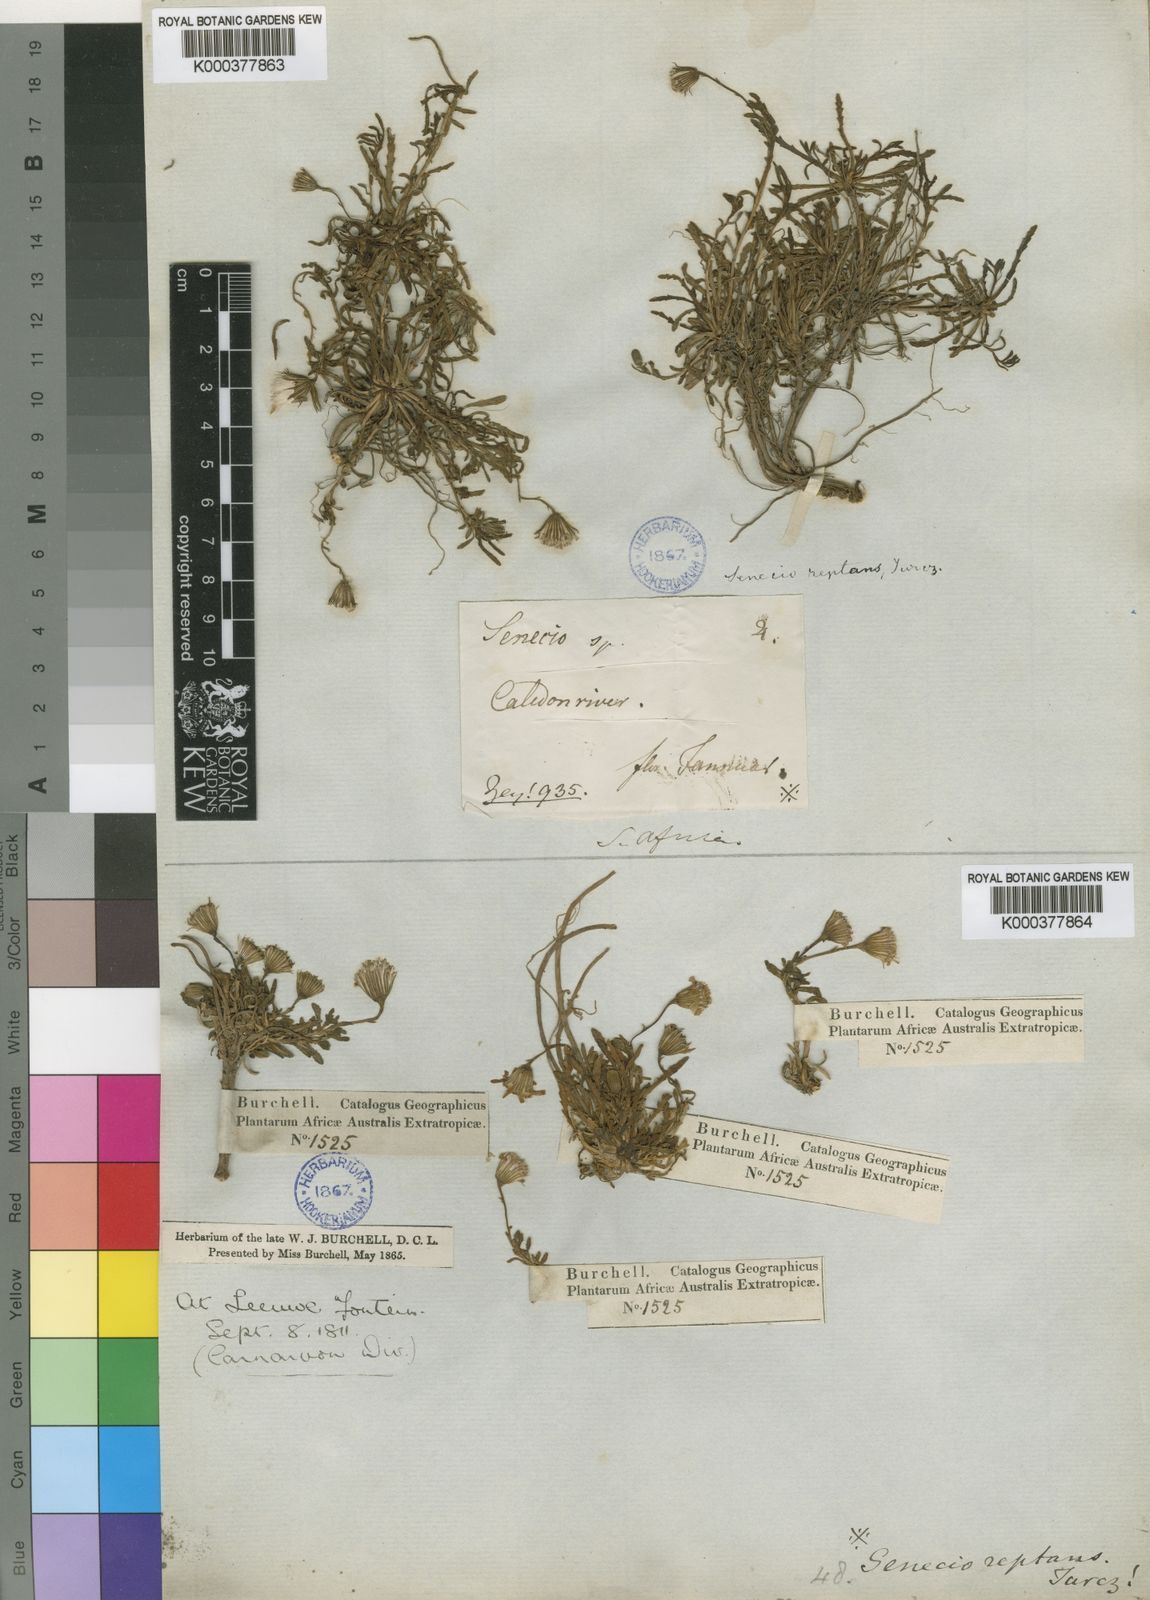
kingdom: Plantae
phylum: Tracheophyta
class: Magnoliopsida
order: Asterales
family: Asteraceae
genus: Senecio
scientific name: Senecio reptans
